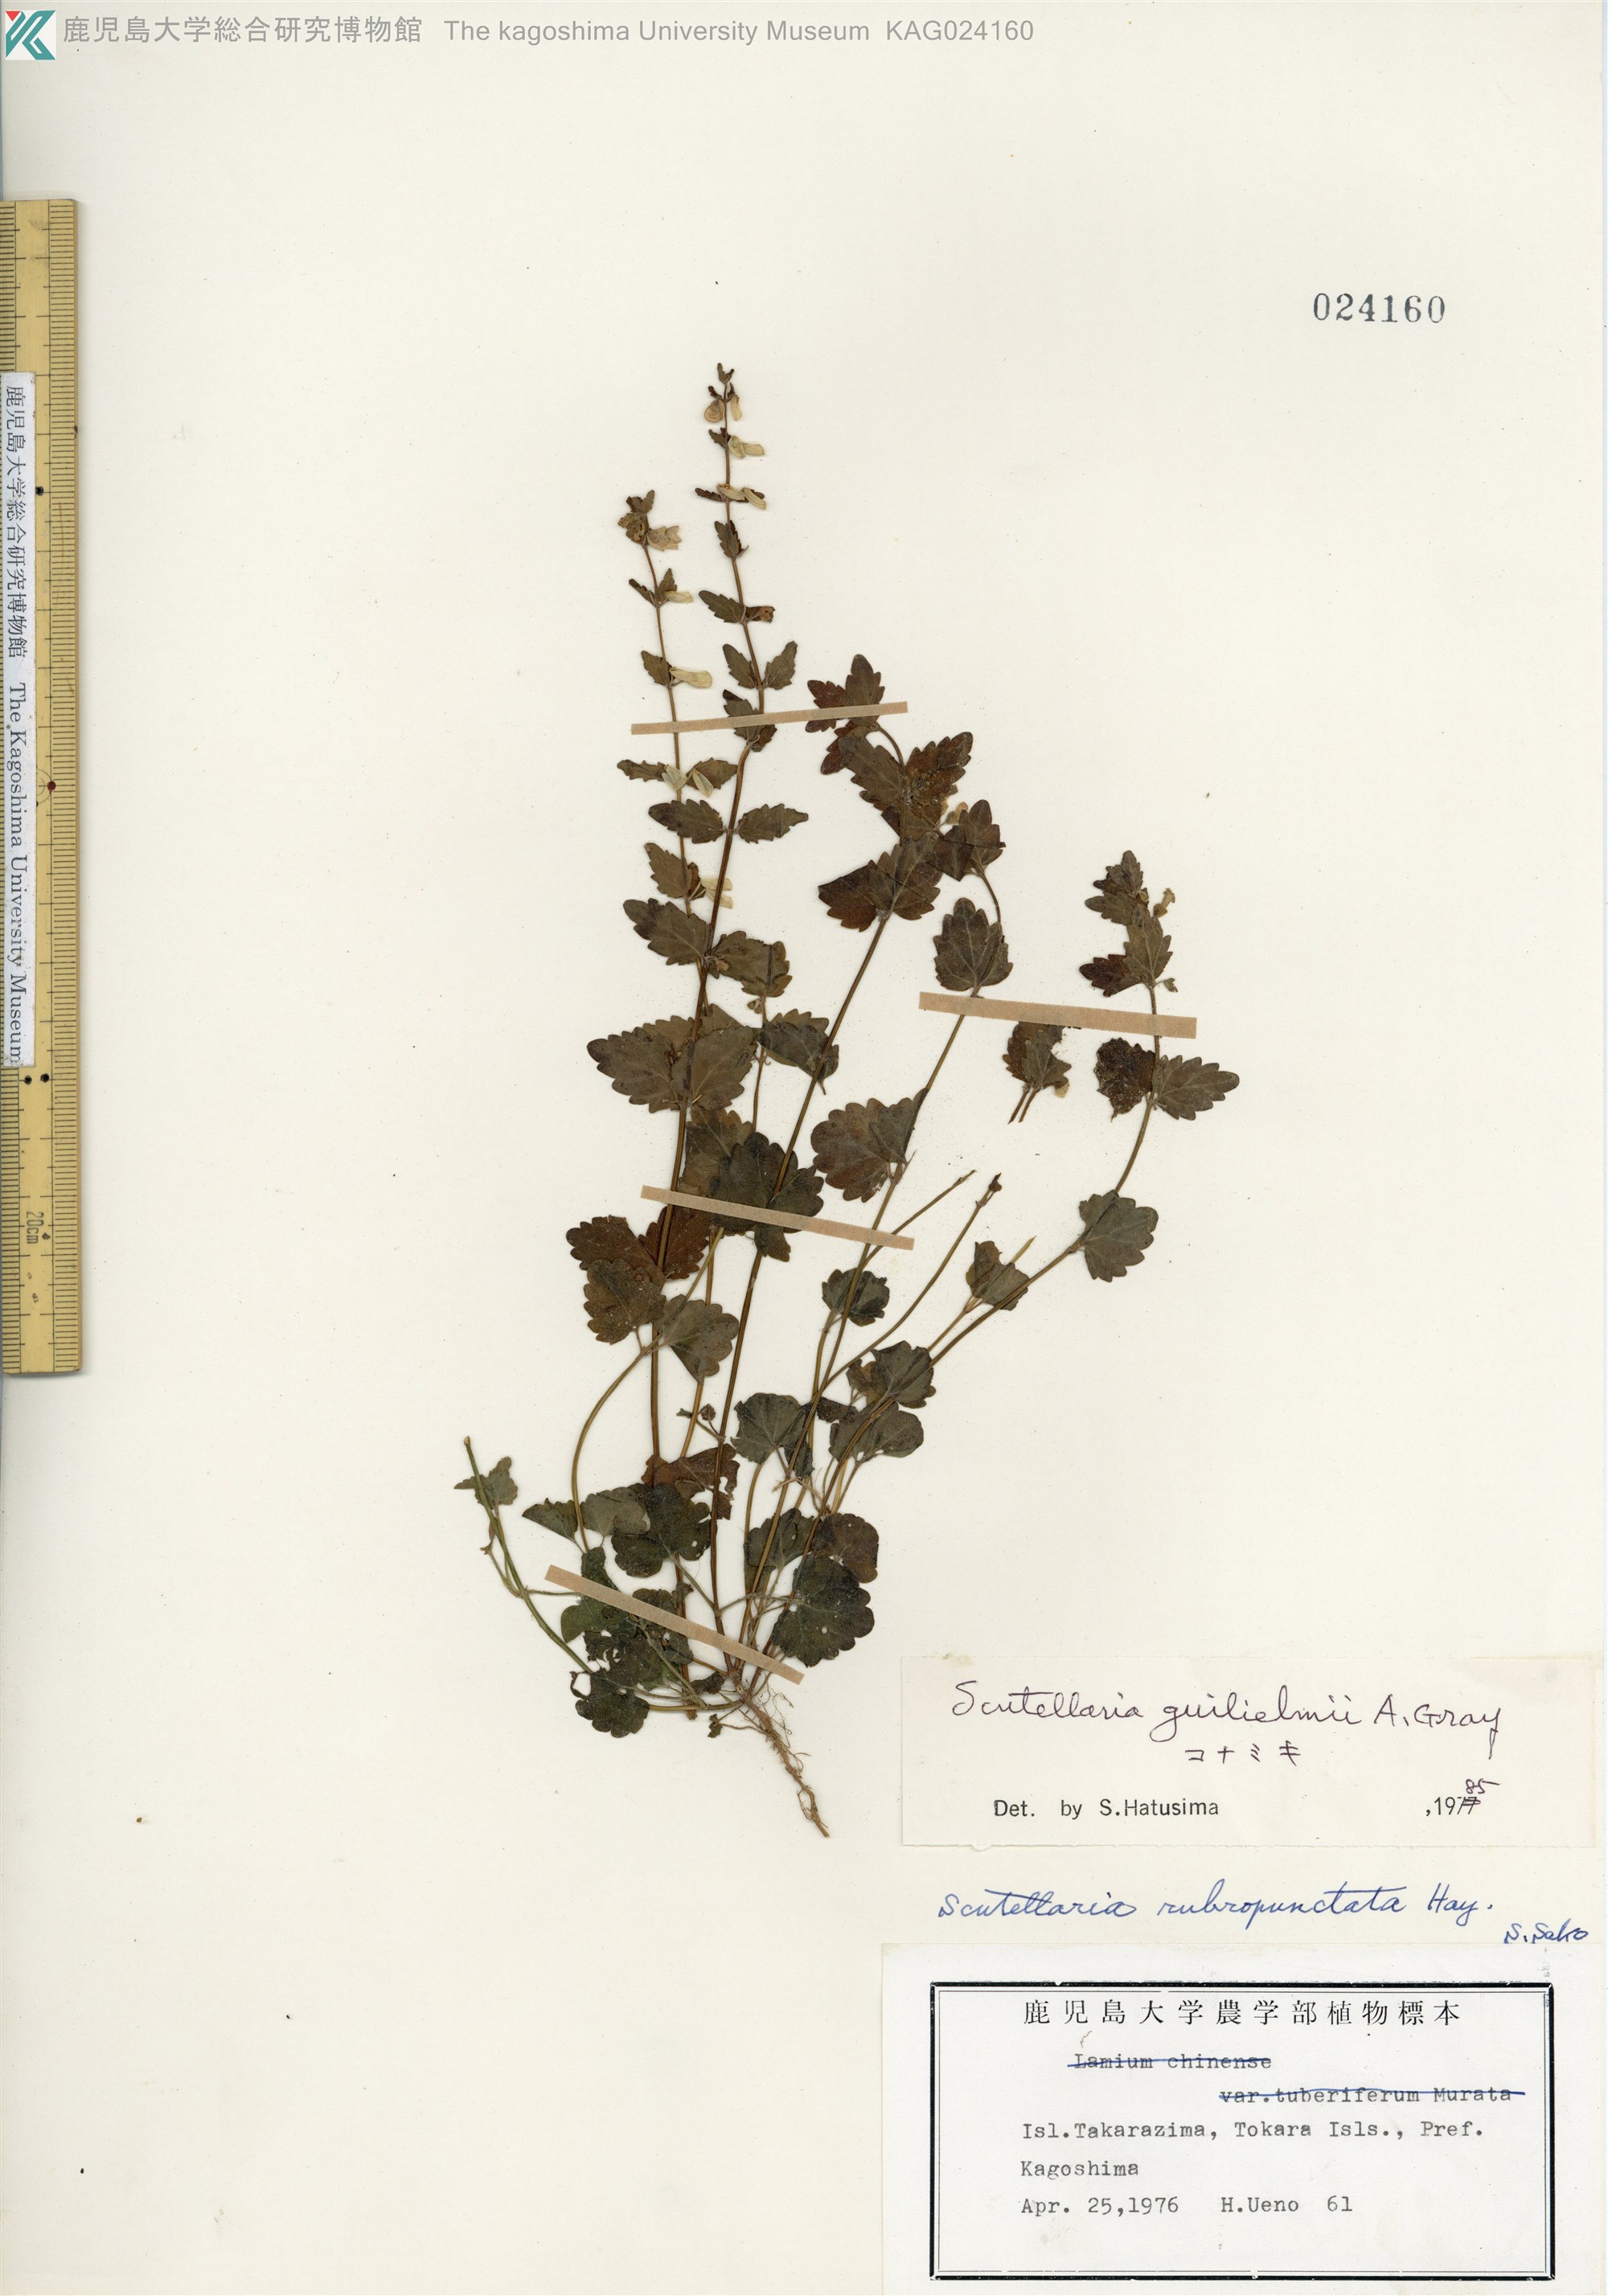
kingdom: Plantae
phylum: Tracheophyta
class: Magnoliopsida
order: Lamiales
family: Lamiaceae
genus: Scutellaria
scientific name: Scutellaria guilielmi
